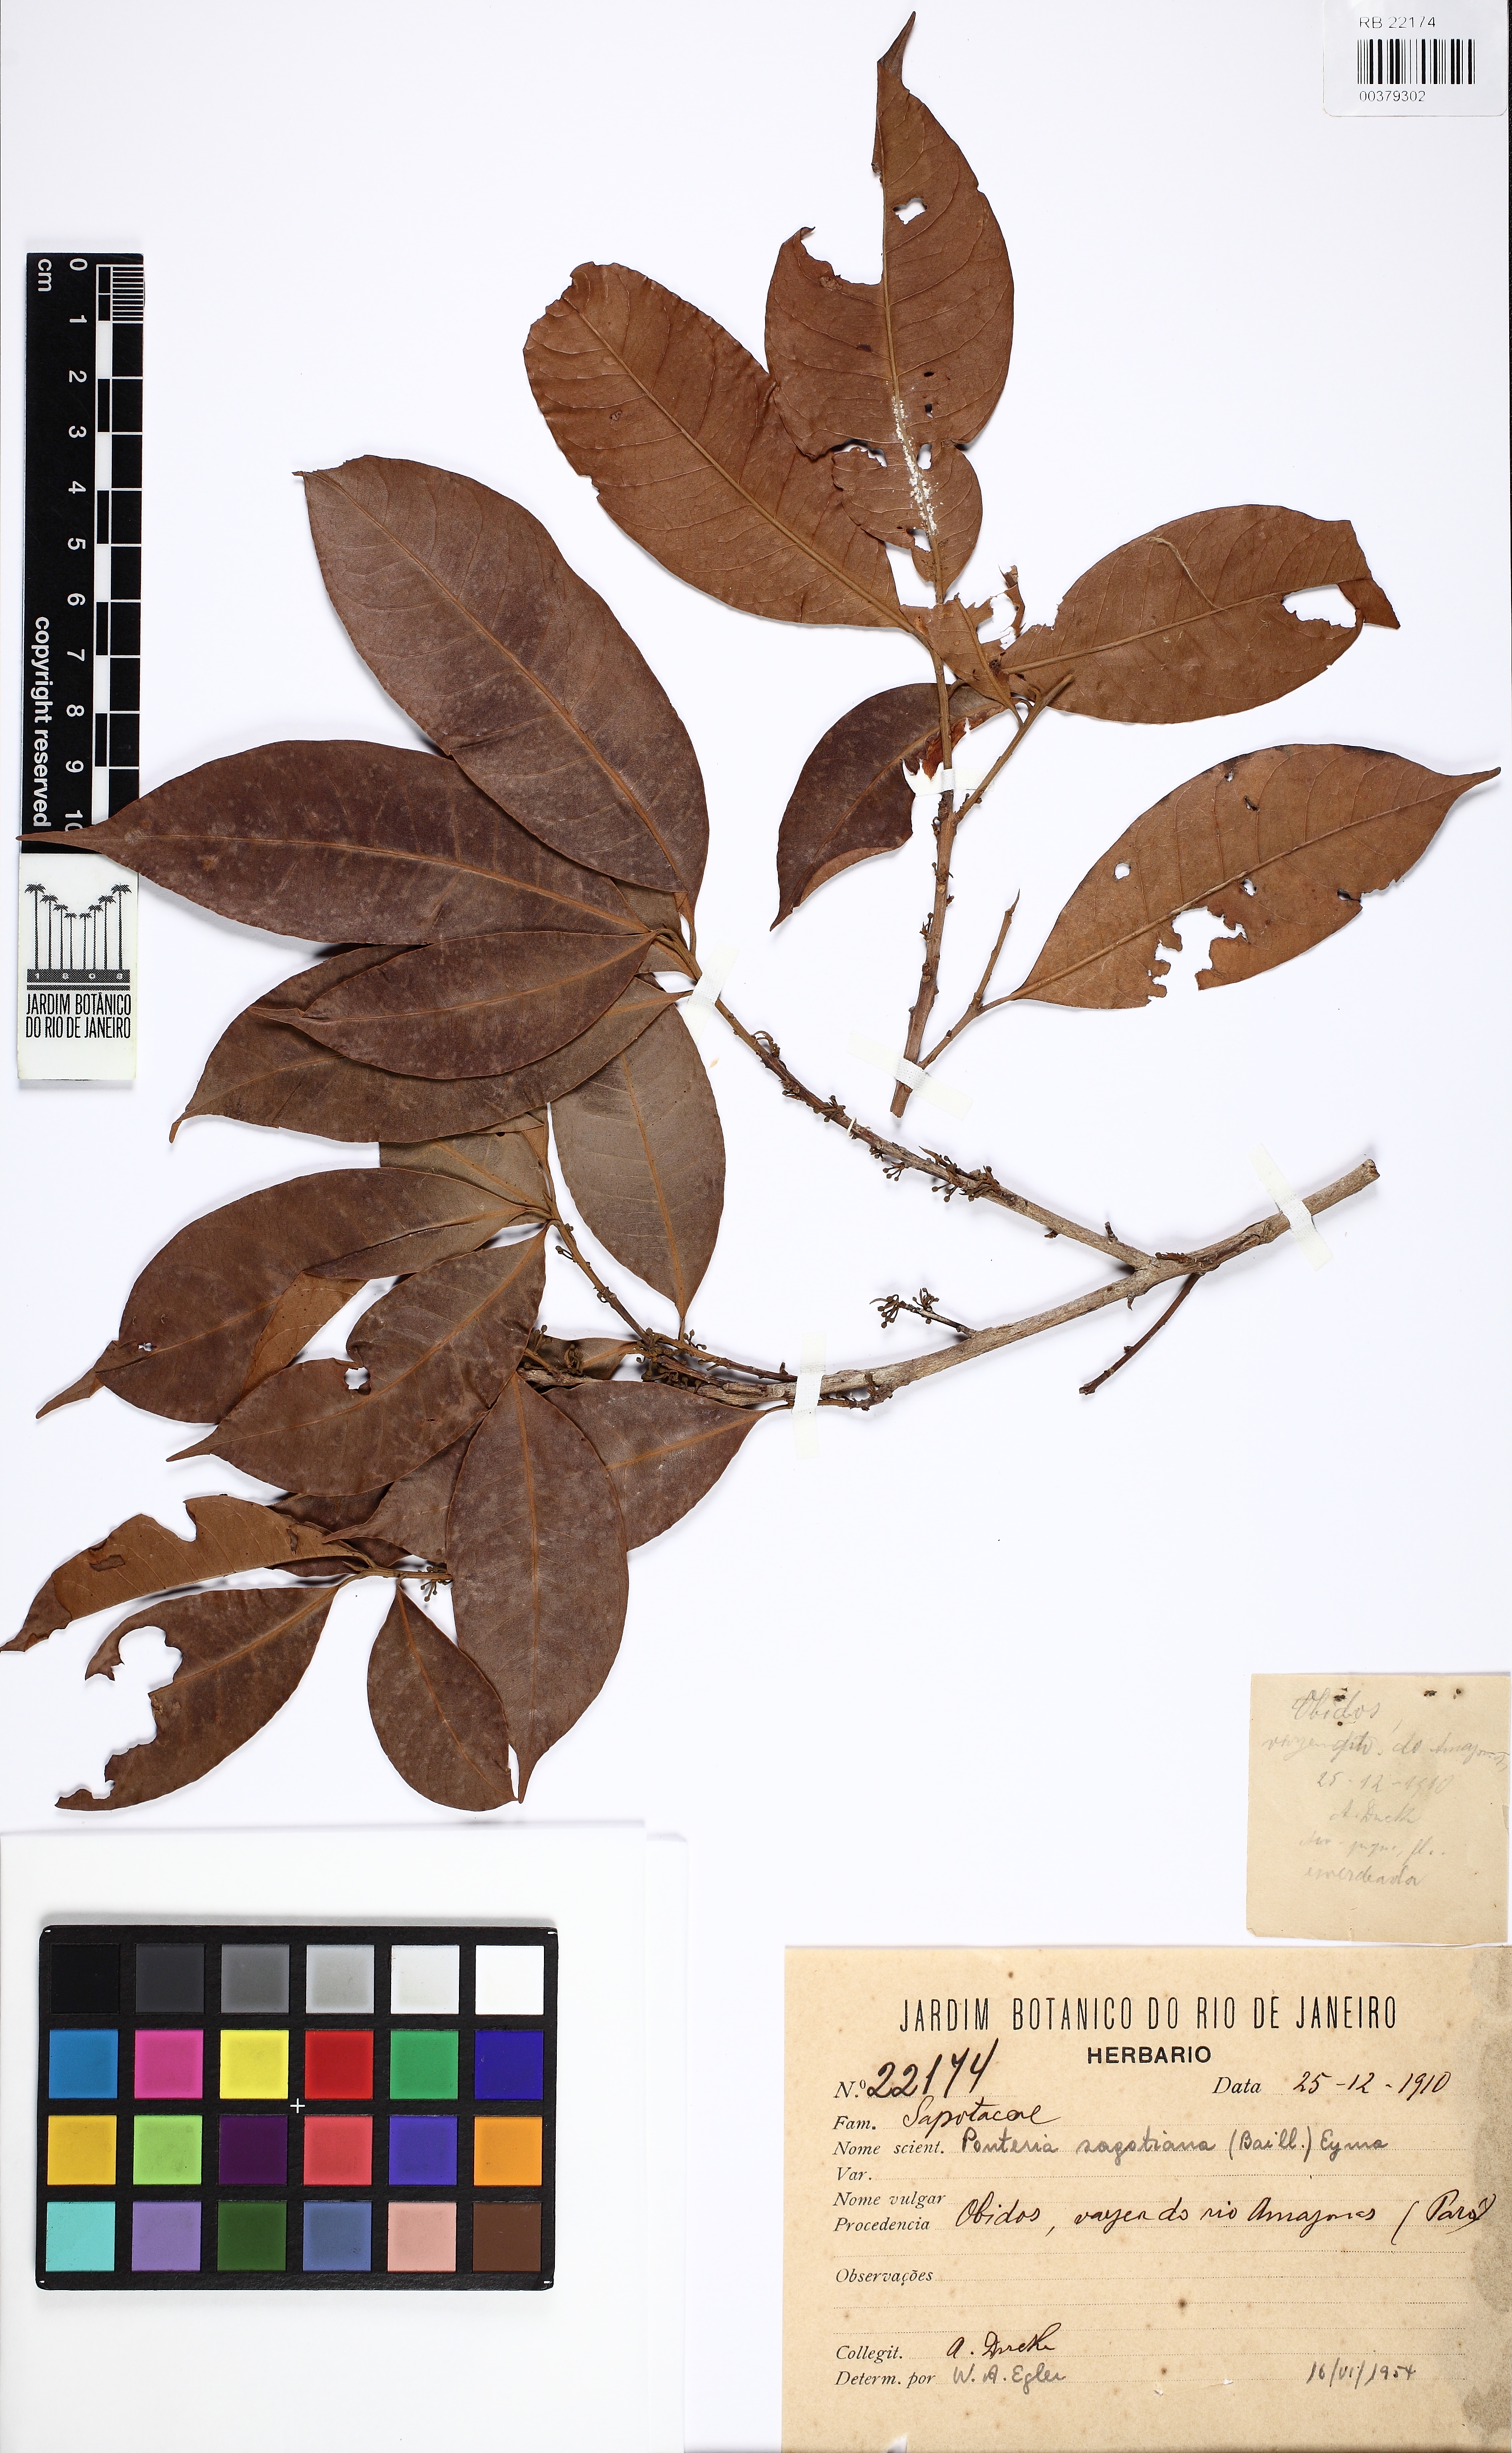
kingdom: Plantae
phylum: Tracheophyta
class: Magnoliopsida
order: Ericales
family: Sapotaceae
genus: Pouteria
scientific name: Pouteria sagotiana
